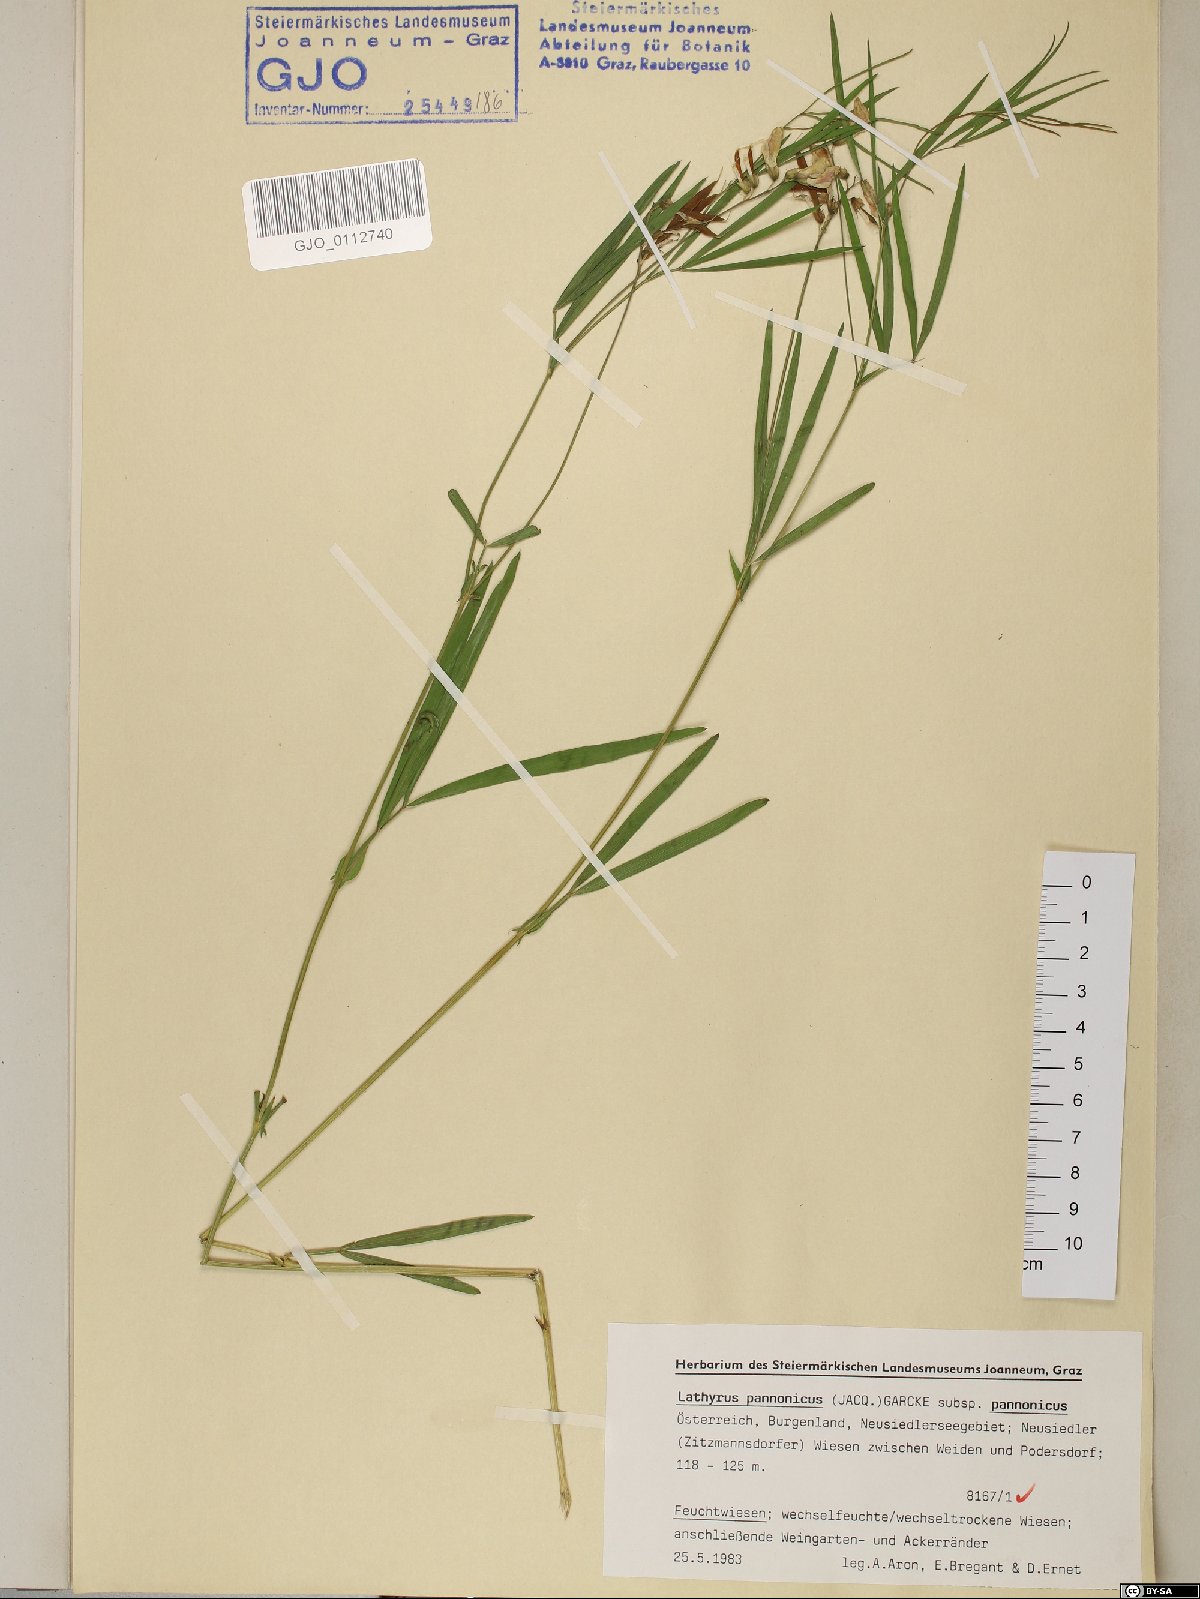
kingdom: Plantae
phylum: Tracheophyta
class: Magnoliopsida
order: Fabales
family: Fabaceae
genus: Lathyrus
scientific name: Lathyrus pannonicus
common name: Pea
